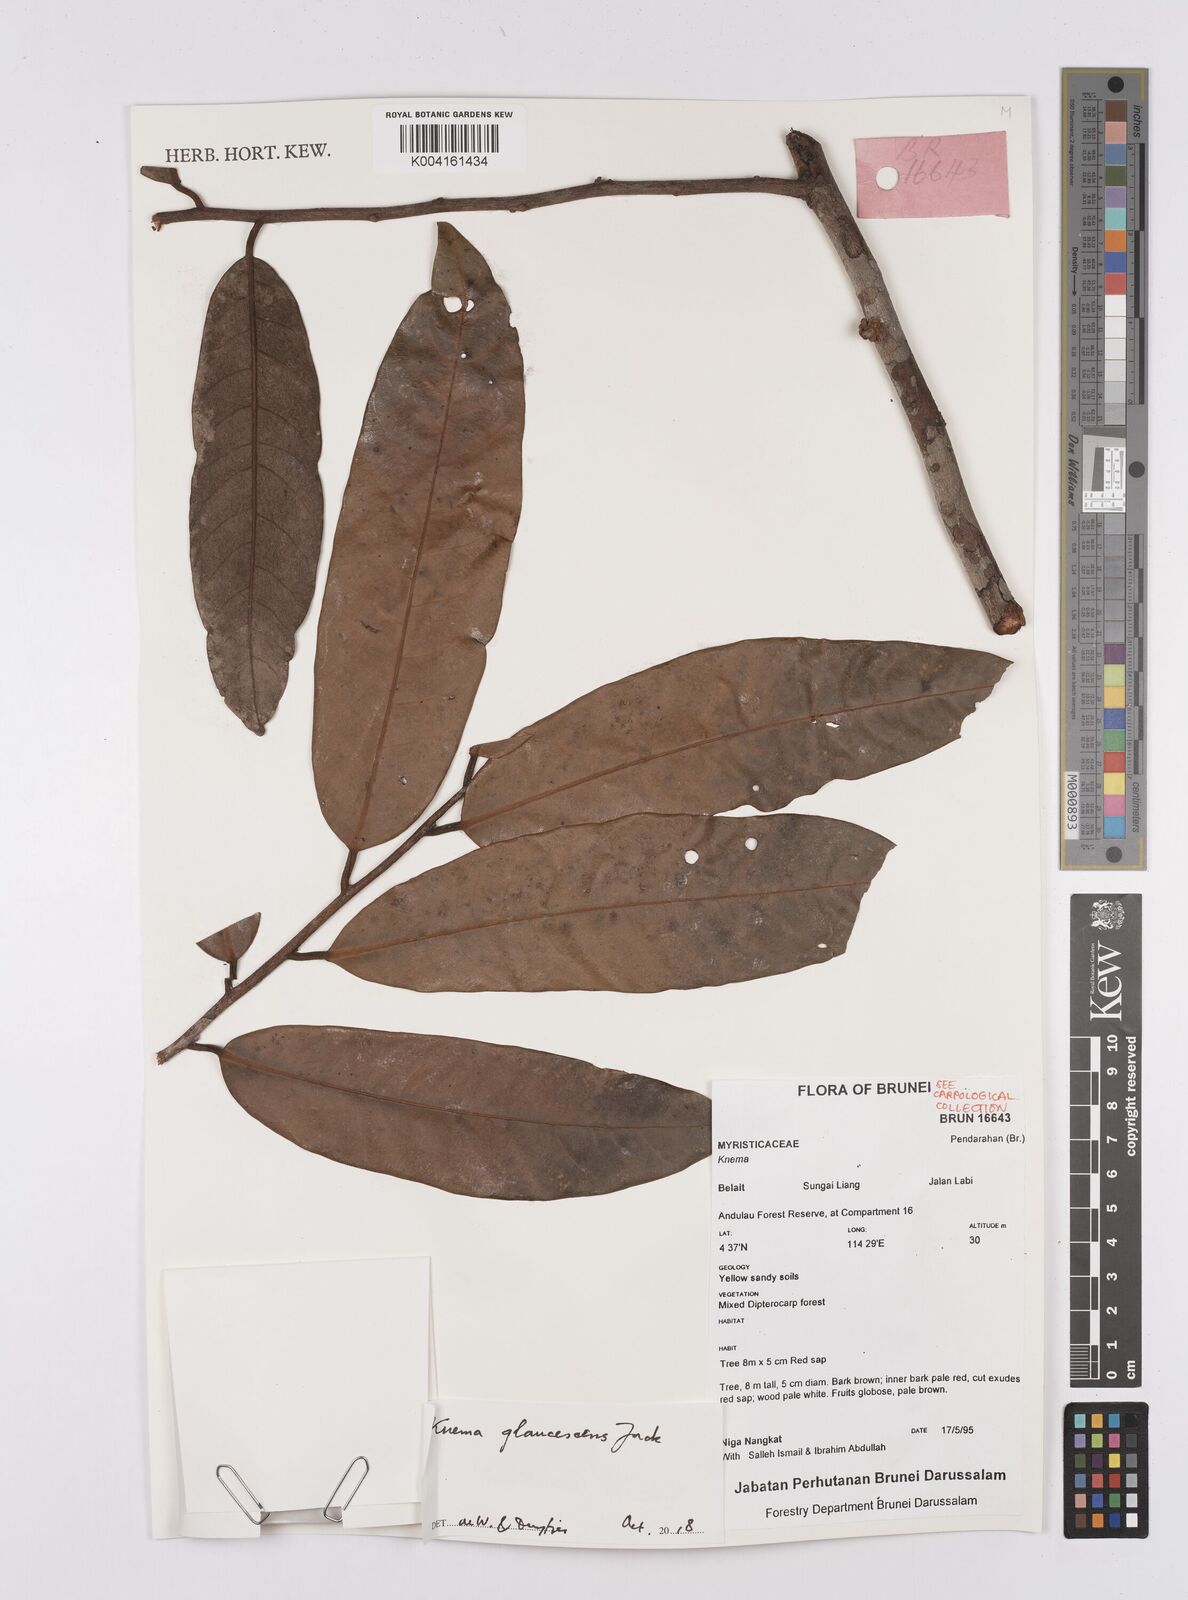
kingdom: Plantae
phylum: Tracheophyta
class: Magnoliopsida
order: Magnoliales
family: Myristicaceae
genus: Knema
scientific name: Knema
